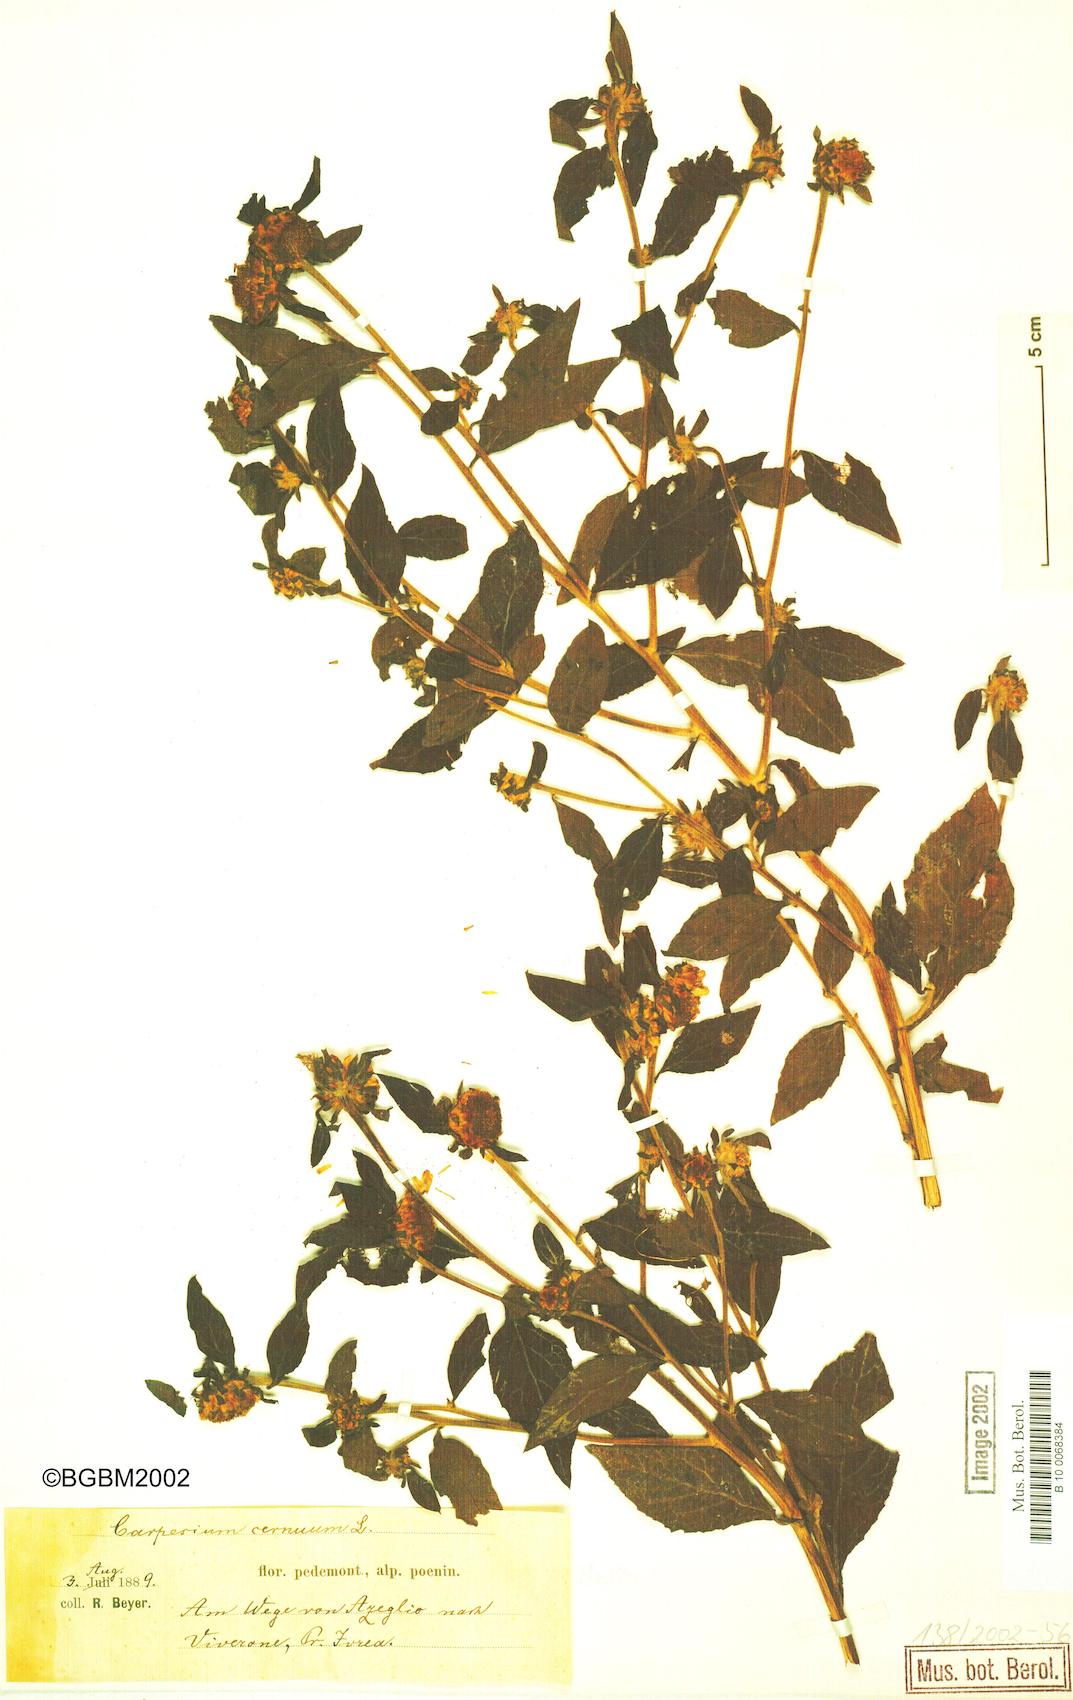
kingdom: Plantae
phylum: Tracheophyta
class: Magnoliopsida
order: Asterales
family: Asteraceae
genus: Carpesium
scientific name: Carpesium cernuum
